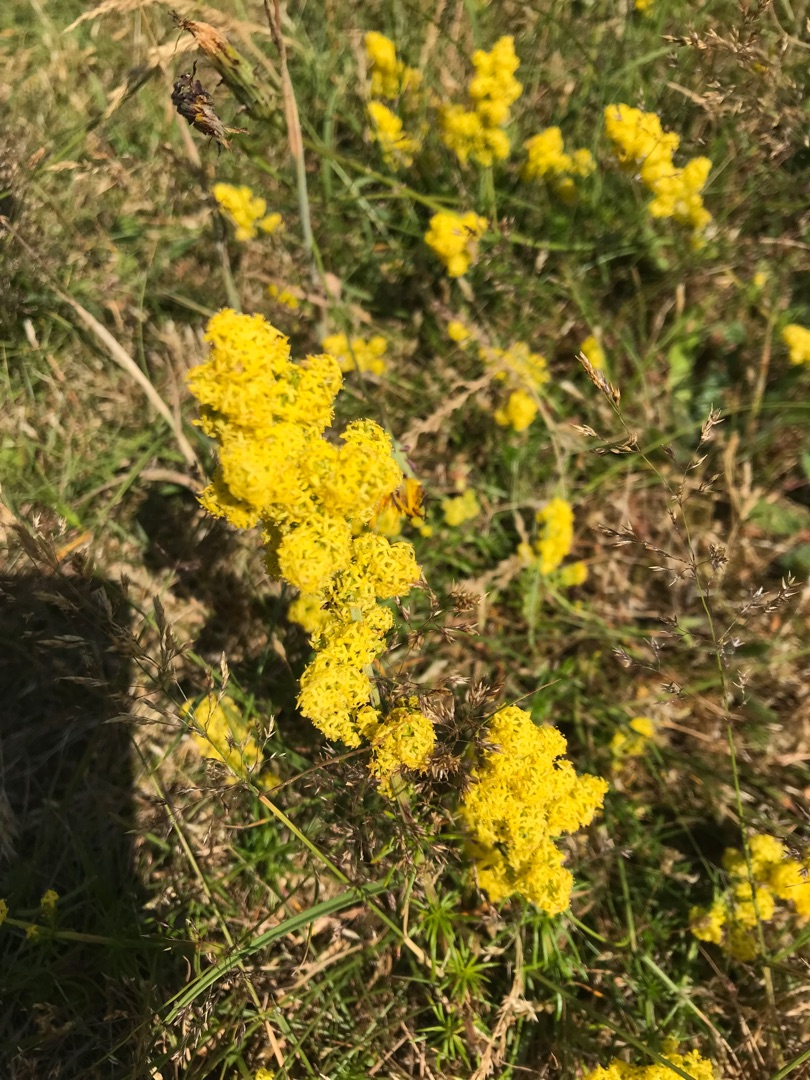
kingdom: Plantae
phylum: Tracheophyta
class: Magnoliopsida
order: Gentianales
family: Rubiaceae
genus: Galium
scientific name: Galium verum
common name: Gul snerre
